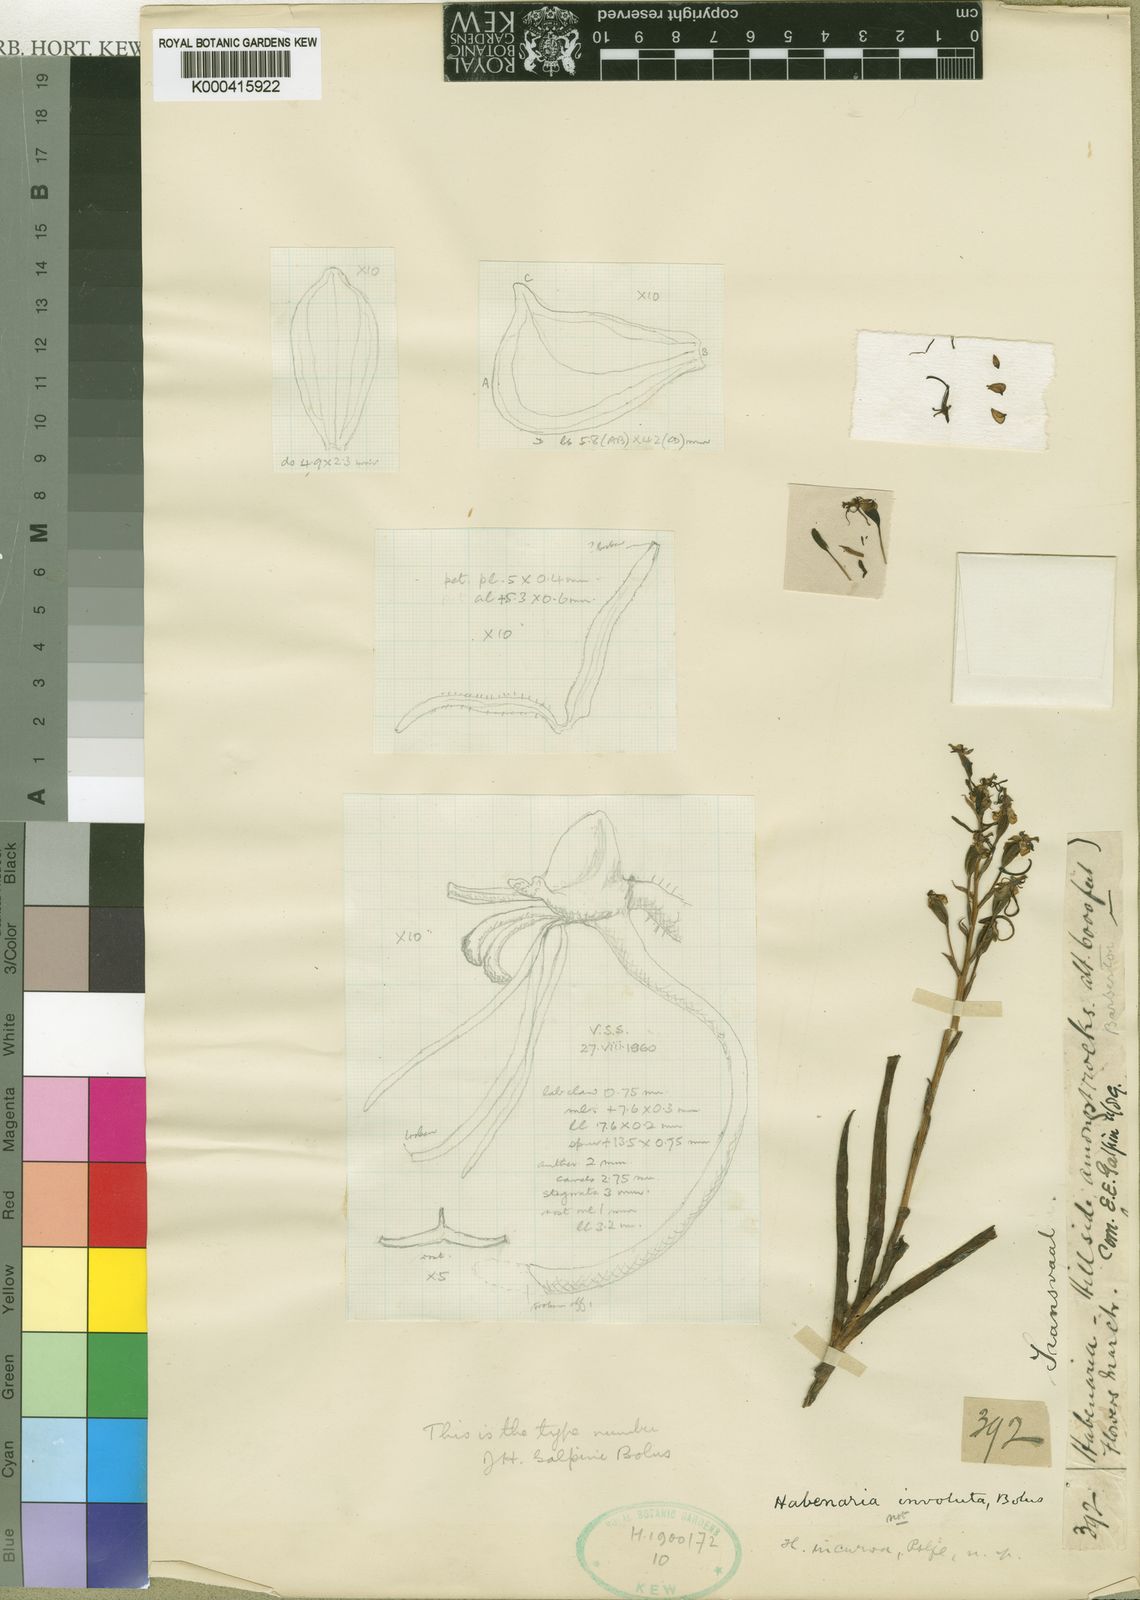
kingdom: Plantae
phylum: Tracheophyta
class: Liliopsida
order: Asparagales
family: Orchidaceae
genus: Habenaria
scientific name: Habenaria galpinii
